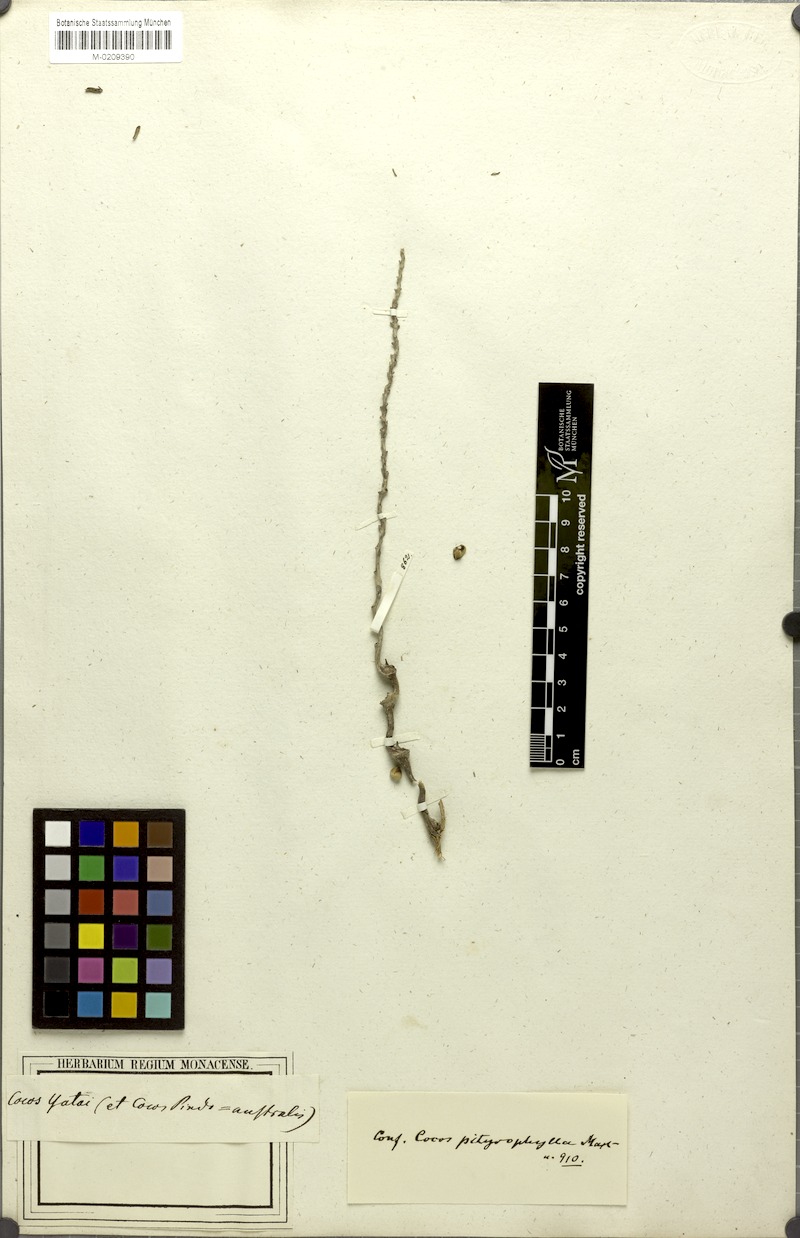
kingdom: Plantae
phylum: Tracheophyta
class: Liliopsida
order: Arecales
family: Arecaceae
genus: Syagrus
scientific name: Syagrus romanzoffiana
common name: Queen palm
